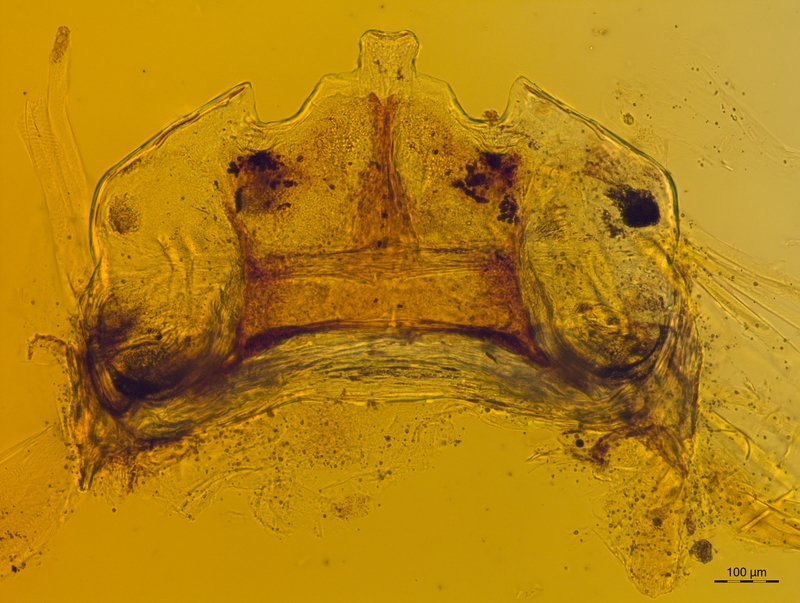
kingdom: Animalia
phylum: Arthropoda
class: Diplopoda
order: Chordeumatida
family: Craspedosomatidae
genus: Craspedosoma
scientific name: Craspedosoma taurinorum
